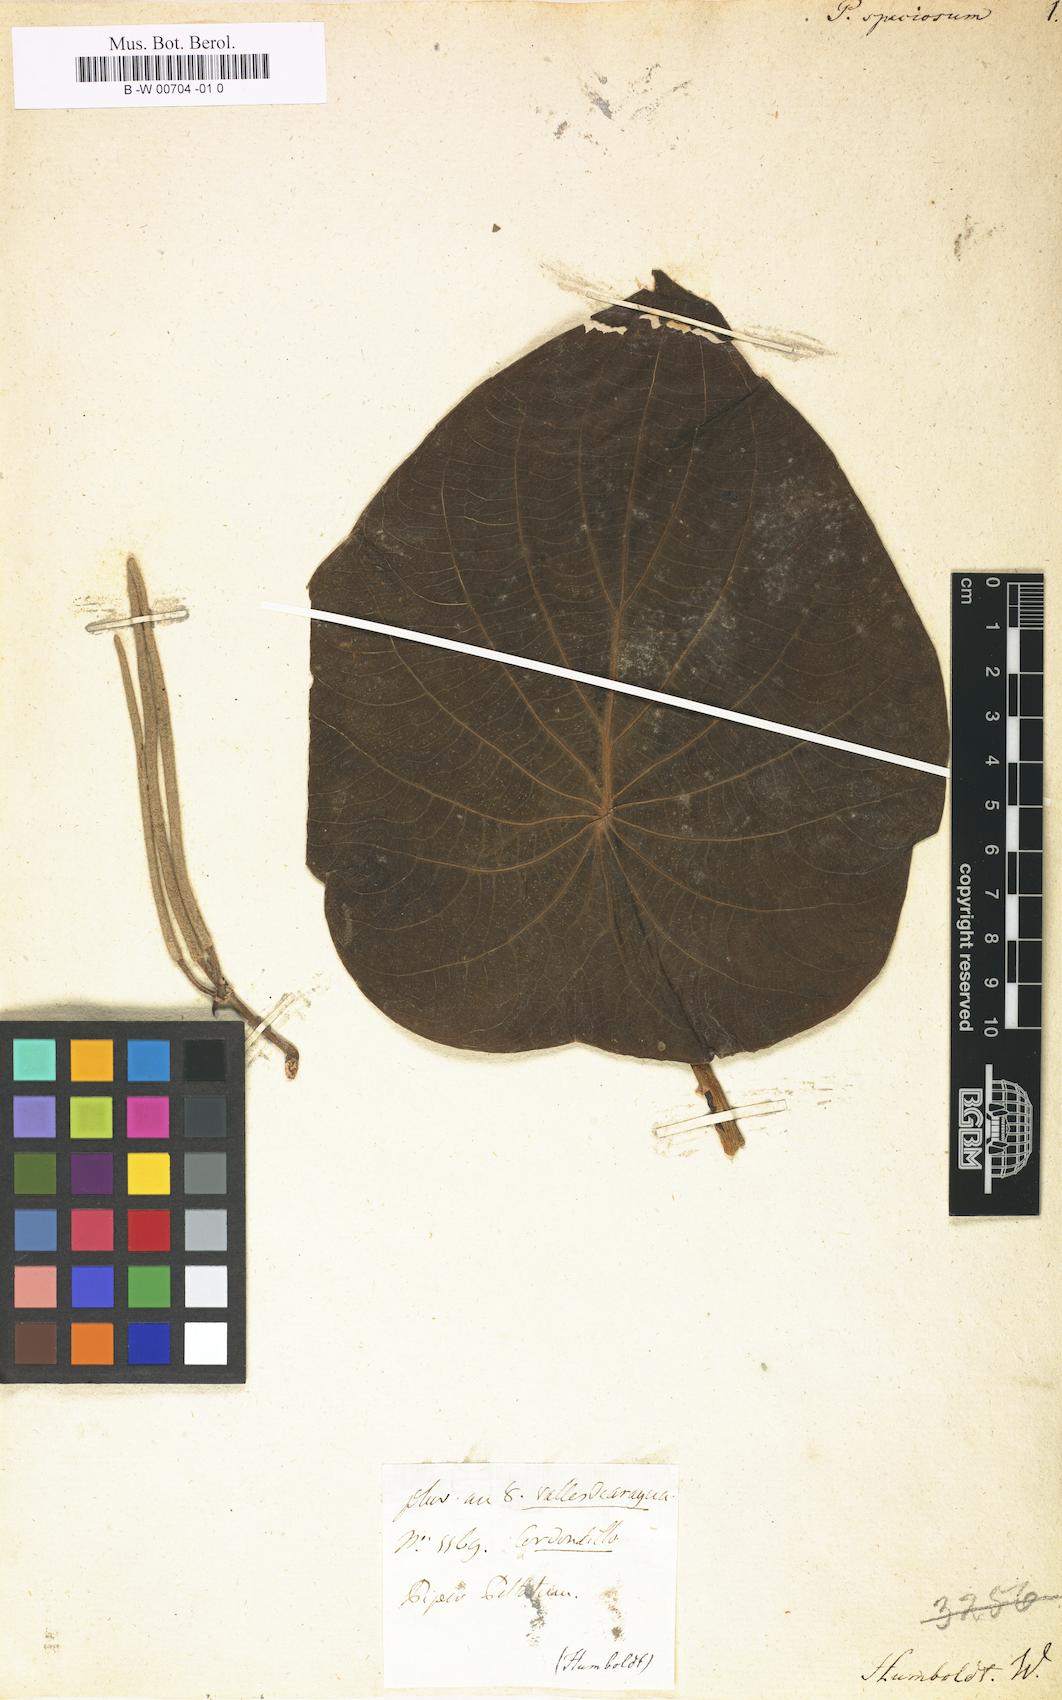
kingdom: Plantae
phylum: Tracheophyta
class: Magnoliopsida
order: Piperales
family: Piperaceae
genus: Piper
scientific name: Piper peltatum
